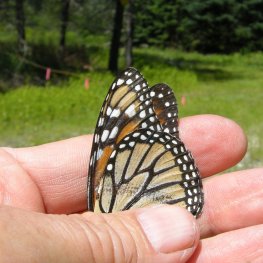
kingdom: Animalia
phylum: Arthropoda
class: Insecta
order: Lepidoptera
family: Nymphalidae
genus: Danaus
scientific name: Danaus plexippus
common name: Monarch
